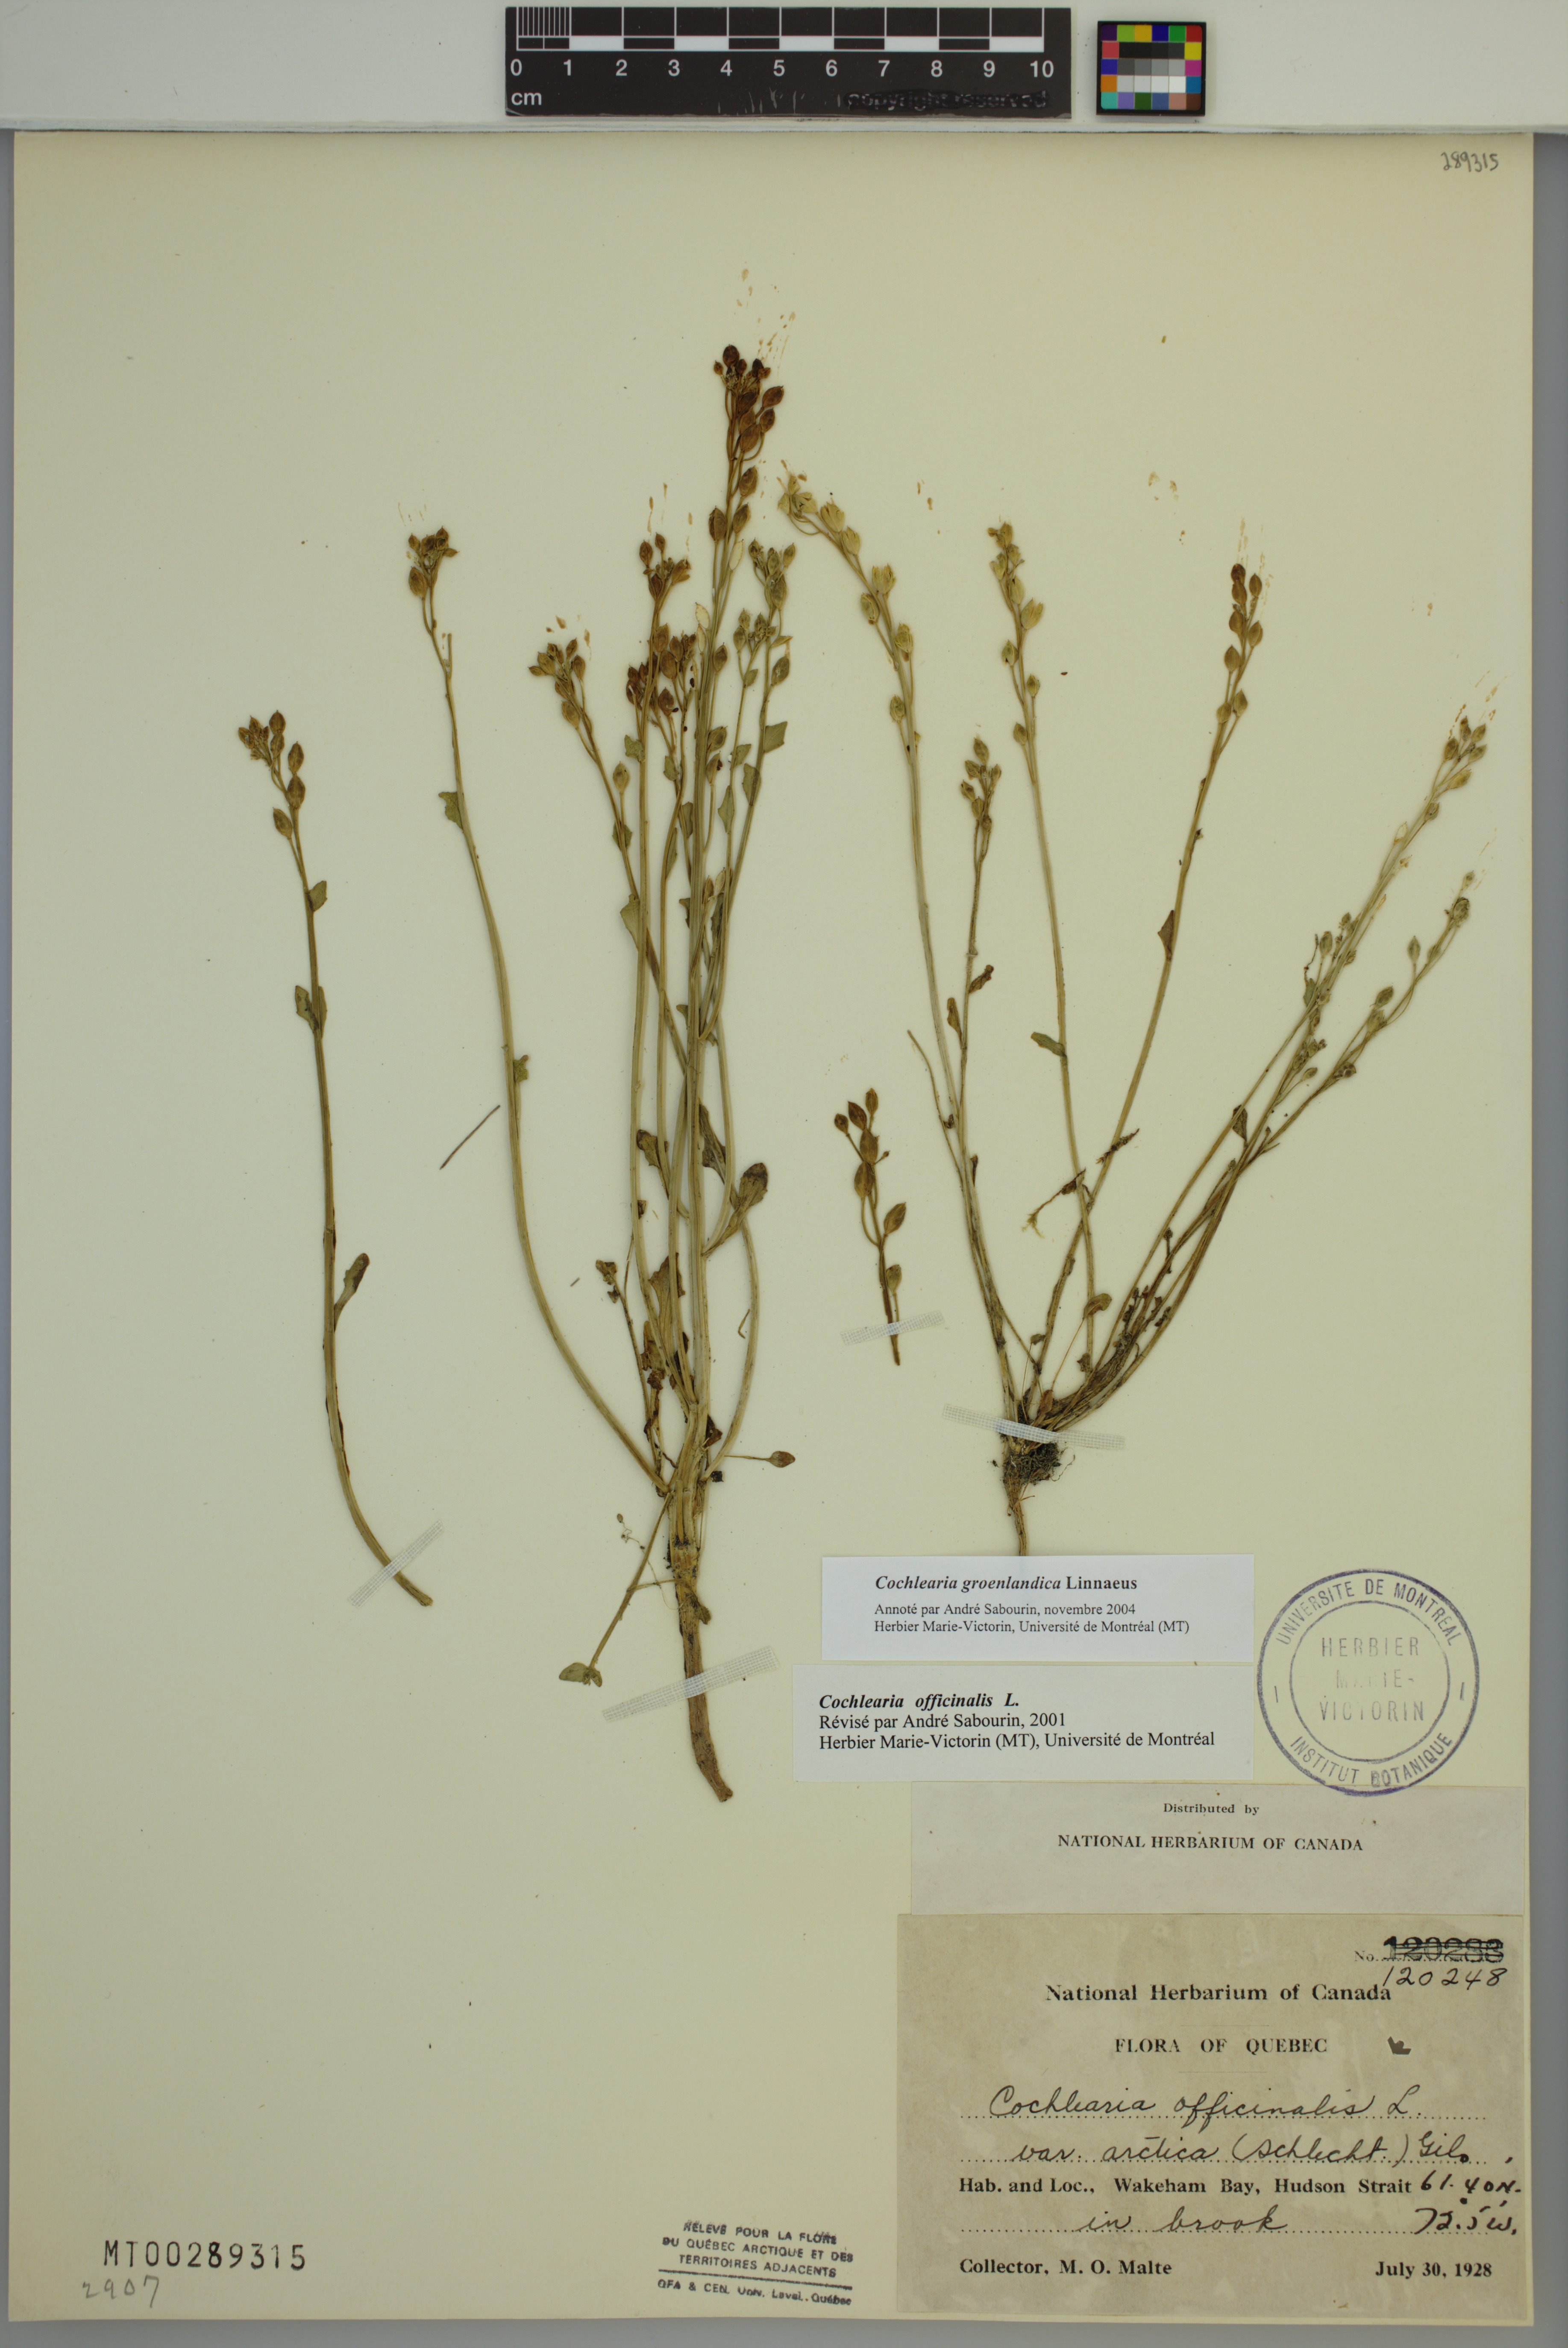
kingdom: Plantae
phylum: Tracheophyta
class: Magnoliopsida
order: Brassicales
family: Brassicaceae
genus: Cochlearia
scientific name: Cochlearia groenlandica
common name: Danish scurvygrass
